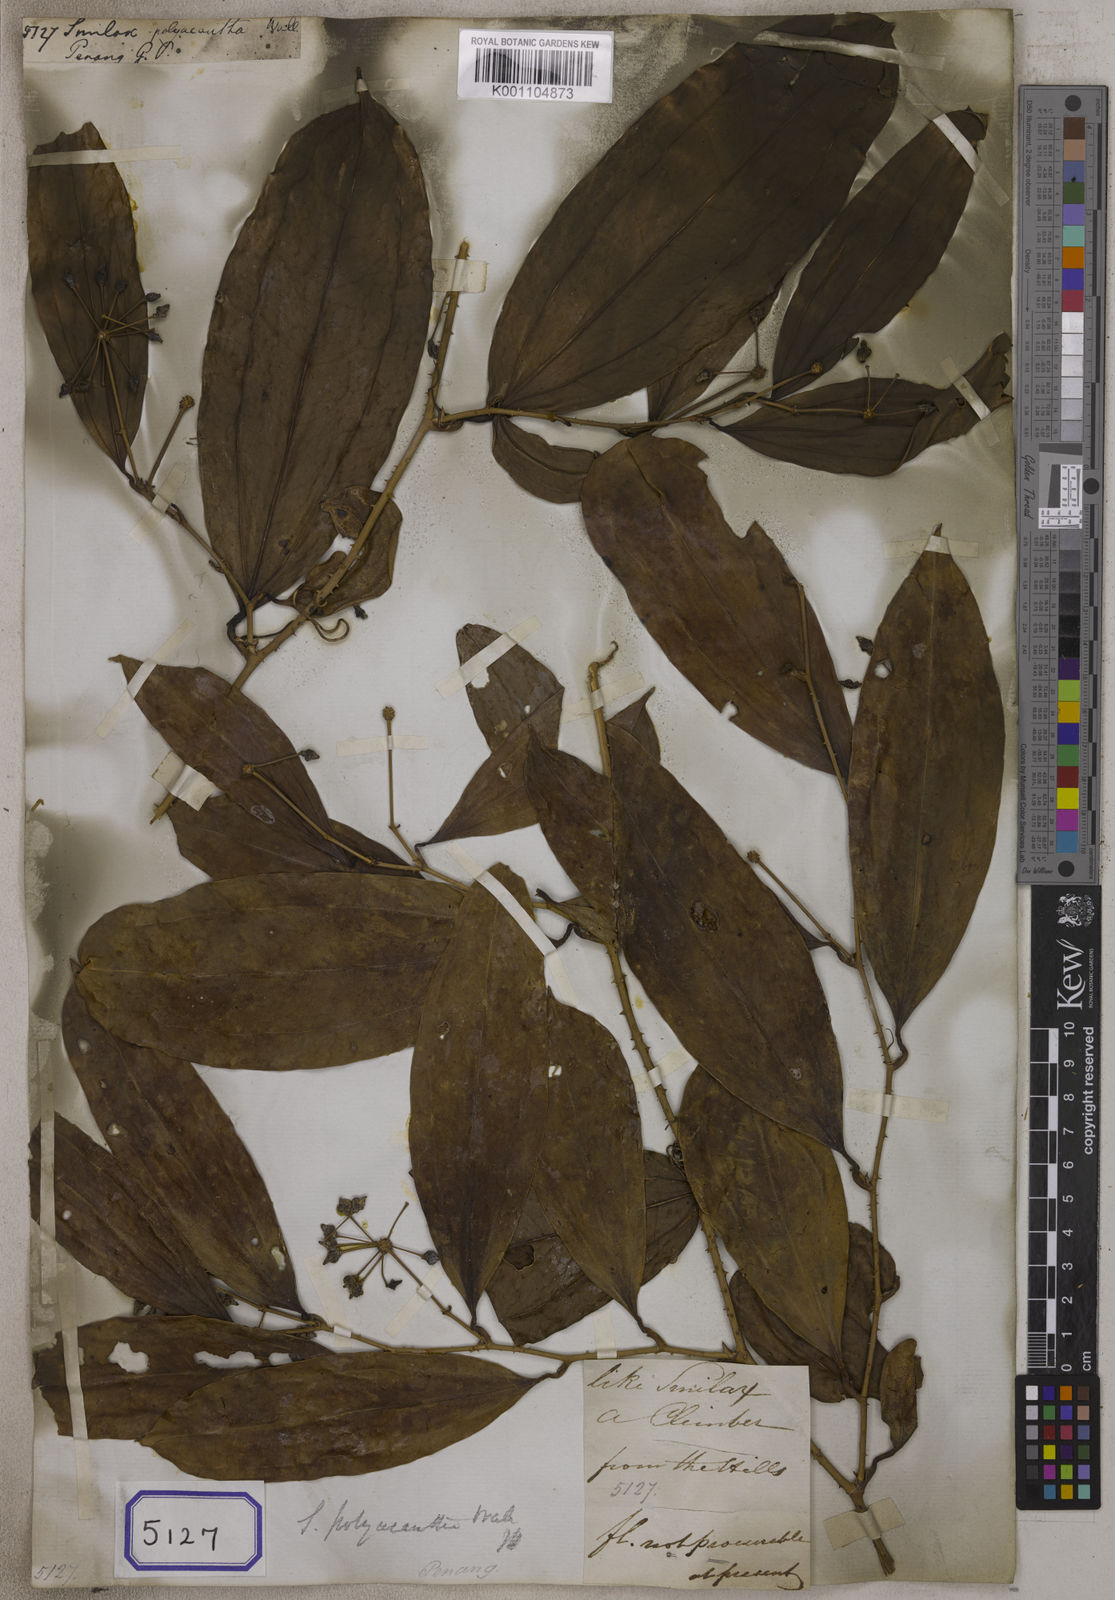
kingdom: Plantae
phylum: Tracheophyta
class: Liliopsida
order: Liliales
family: Smilacaceae
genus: Smilax
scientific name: Smilax
